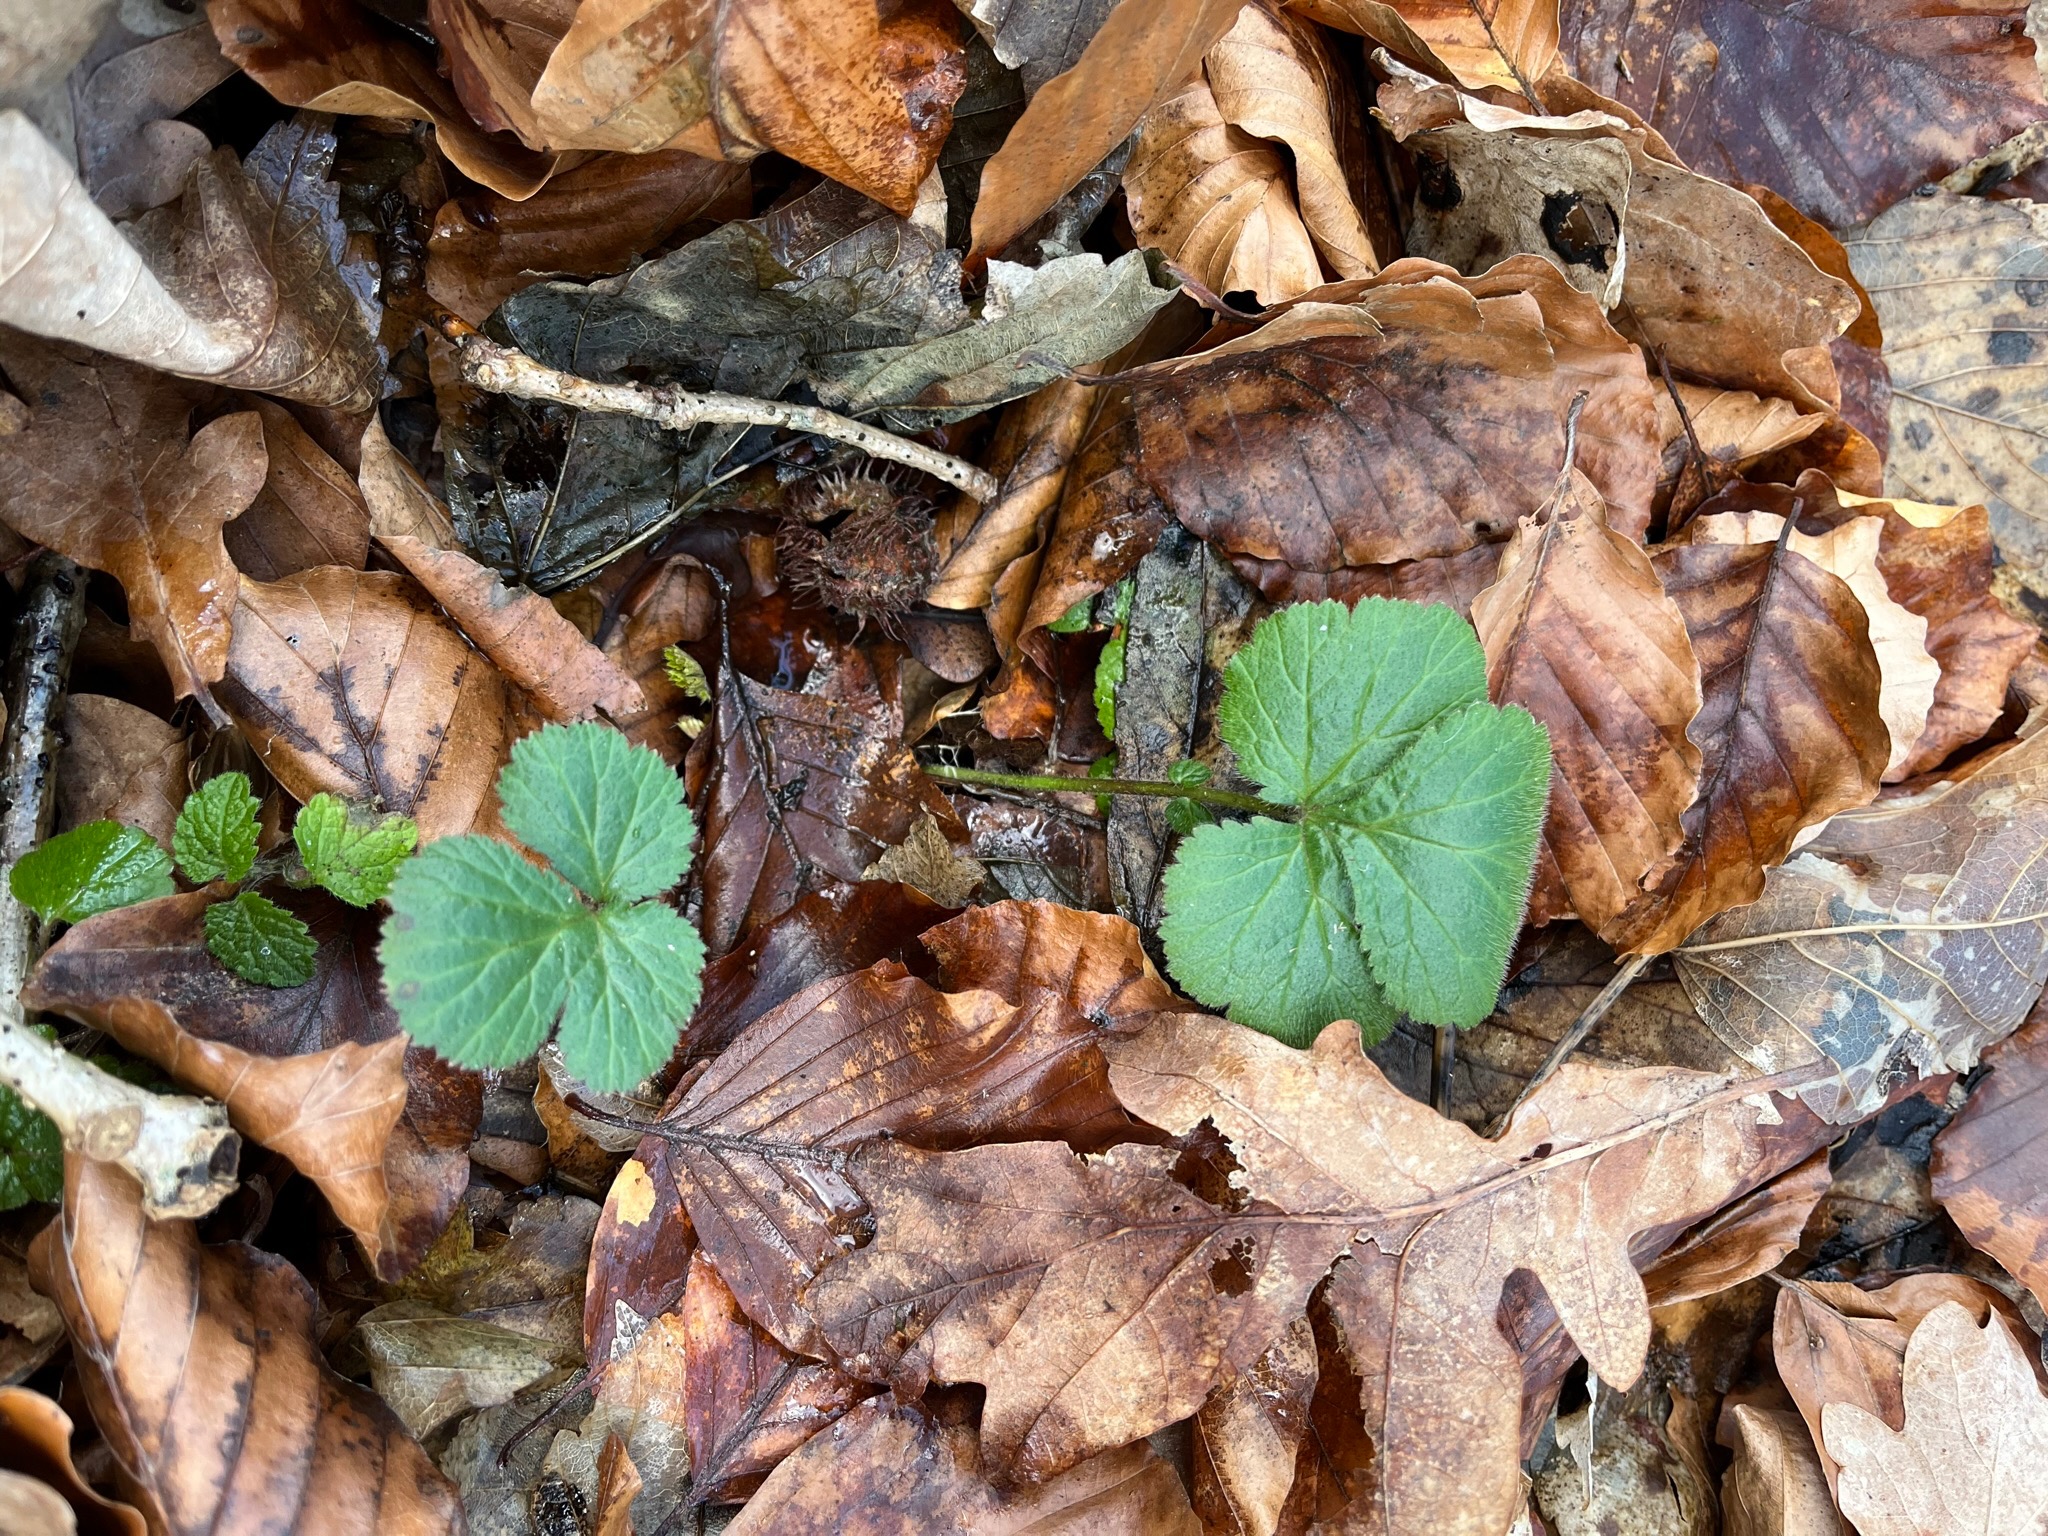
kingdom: Plantae
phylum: Tracheophyta
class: Magnoliopsida
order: Rosales
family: Rosaceae
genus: Geum
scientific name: Geum urbanum
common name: Feber-nellikerod
